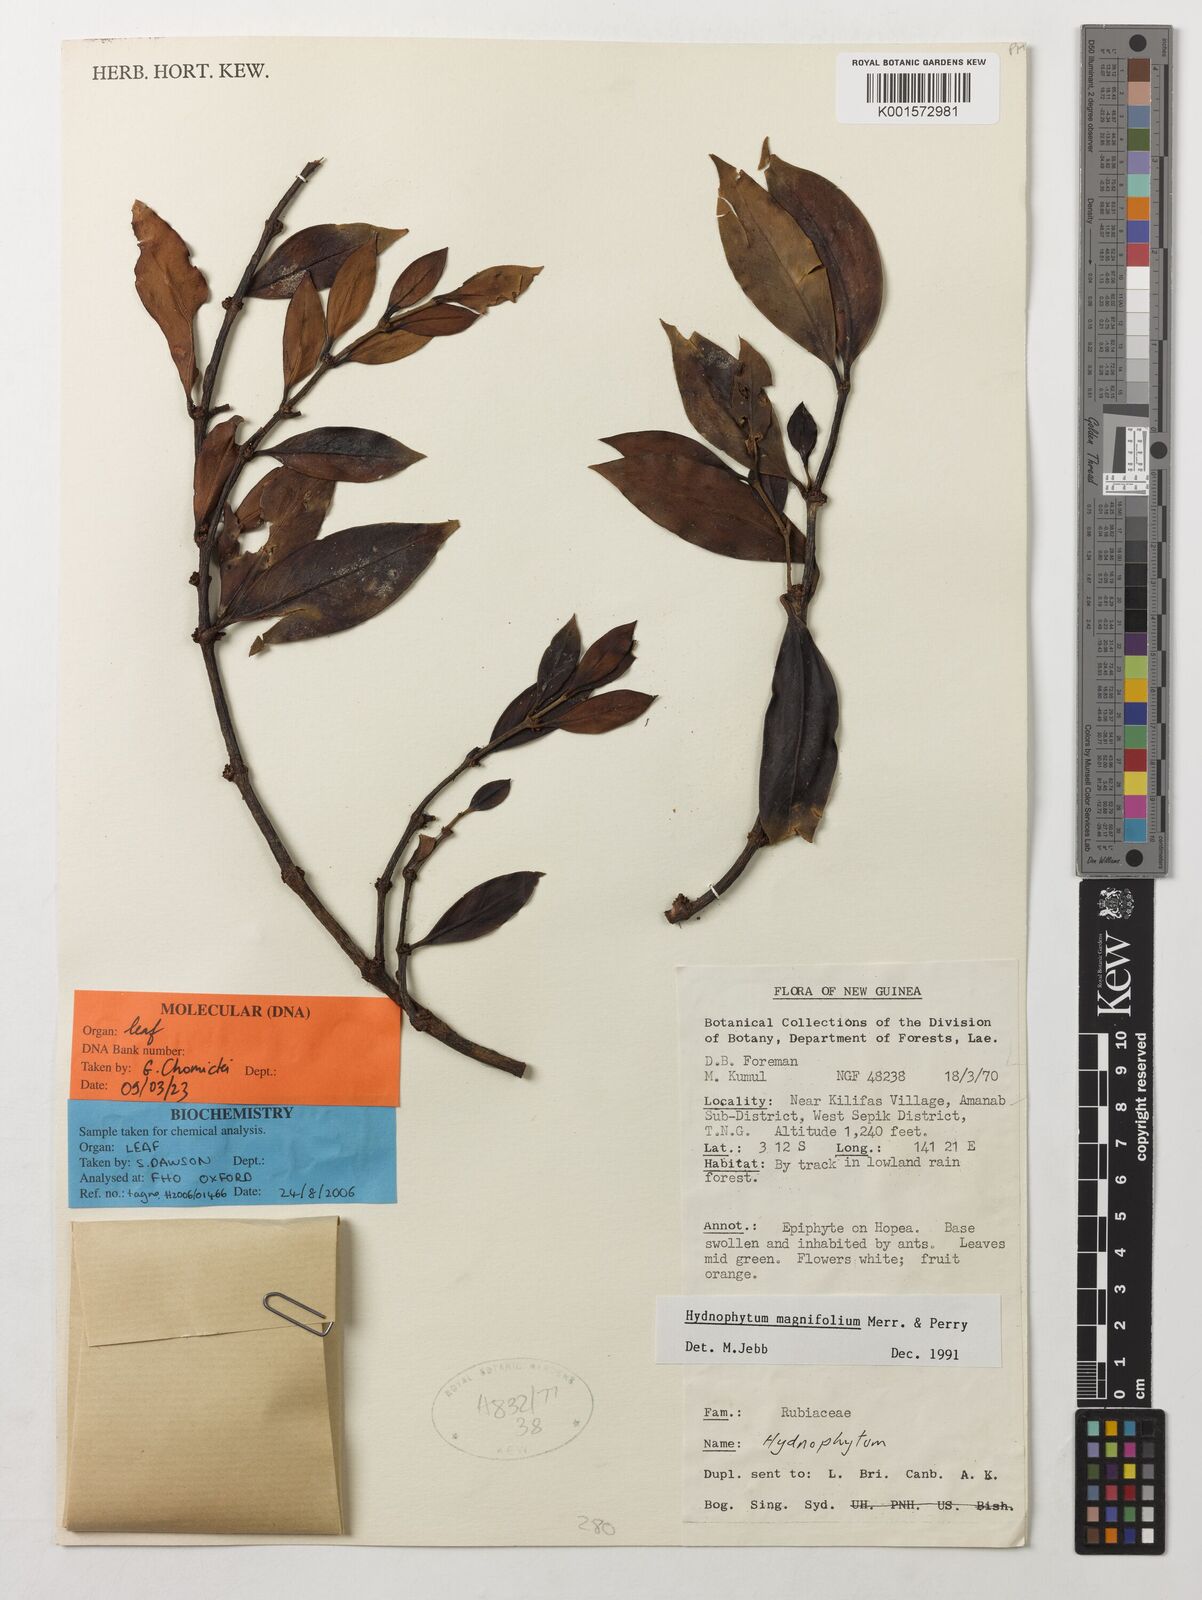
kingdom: Plantae
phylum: Tracheophyta
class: Magnoliopsida
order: Gentianales
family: Rubiaceae
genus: Hydnophytum
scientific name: Hydnophytum magnifolium
